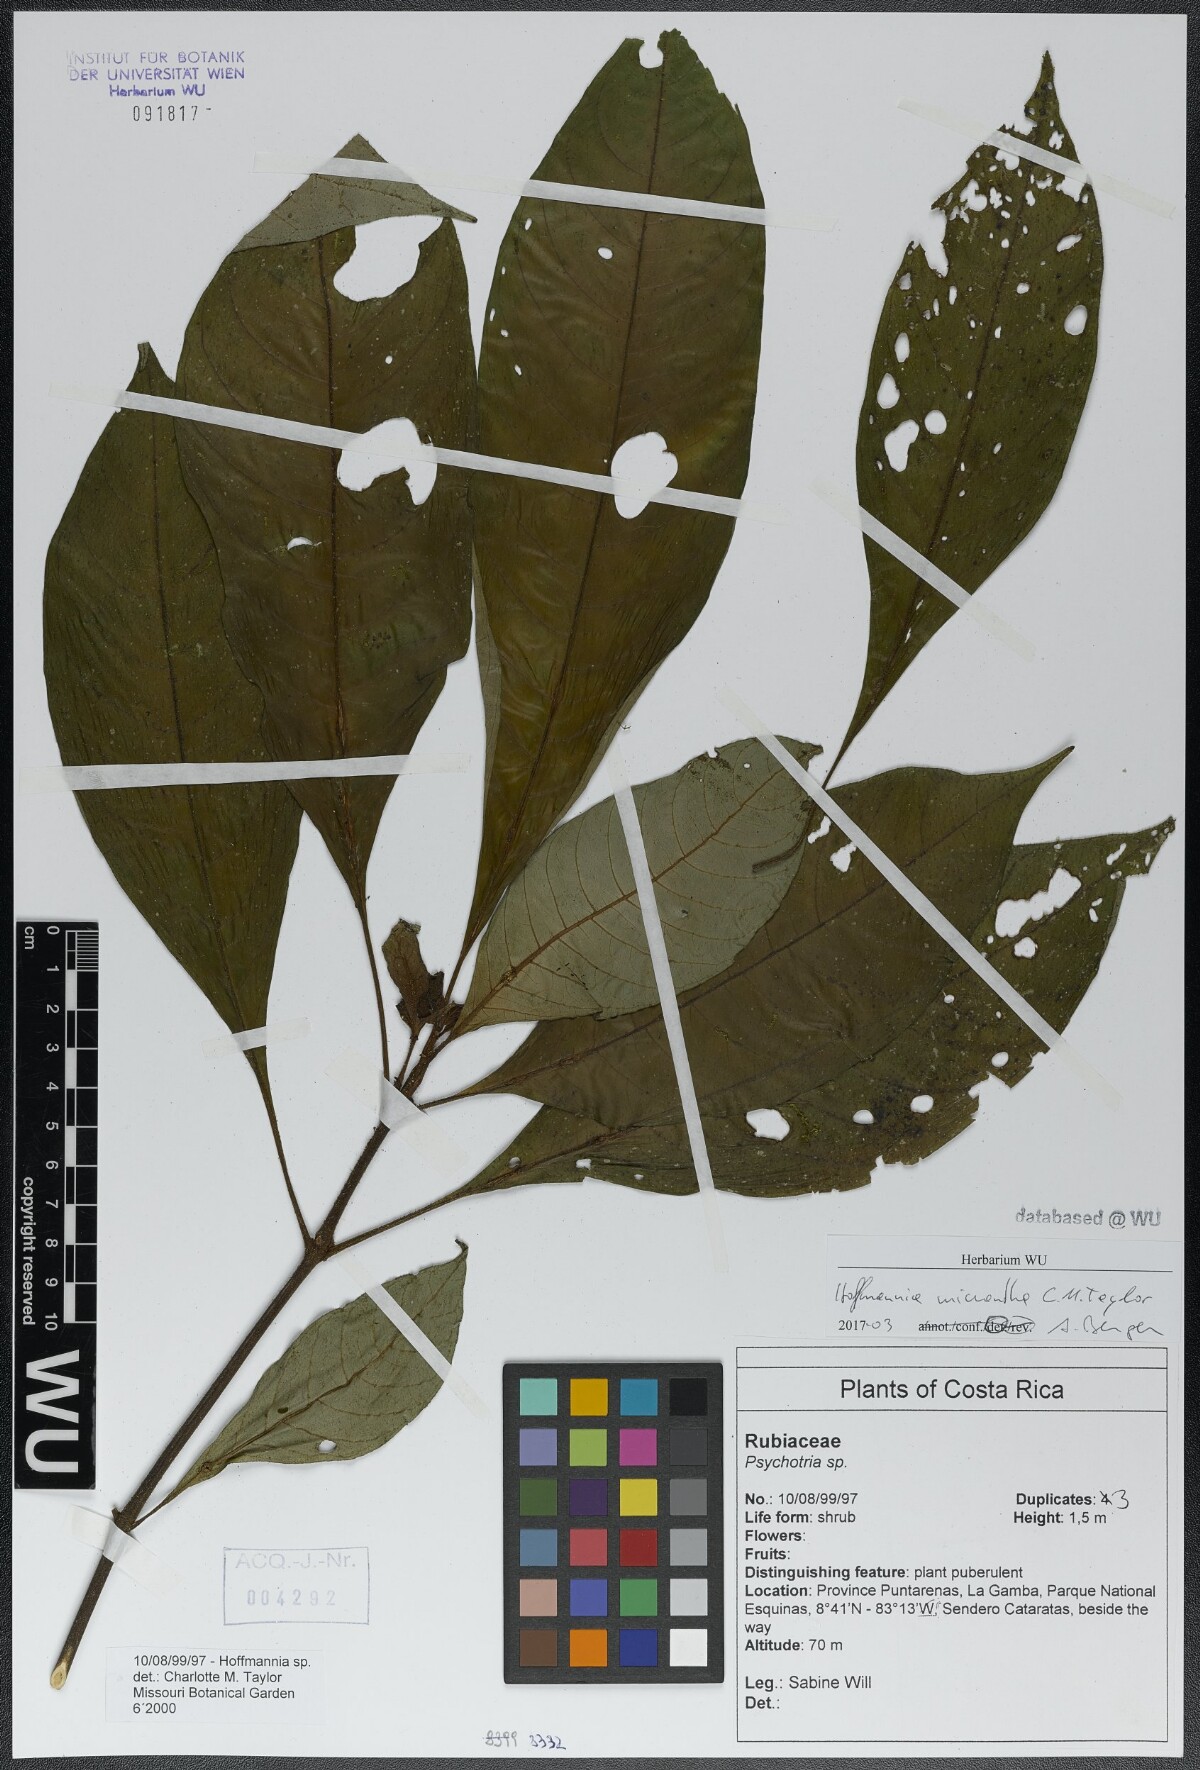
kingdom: Plantae
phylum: Tracheophyta
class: Magnoliopsida
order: Gentianales
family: Rubiaceae
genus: Hoffmannia
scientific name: Hoffmannia micrantha
